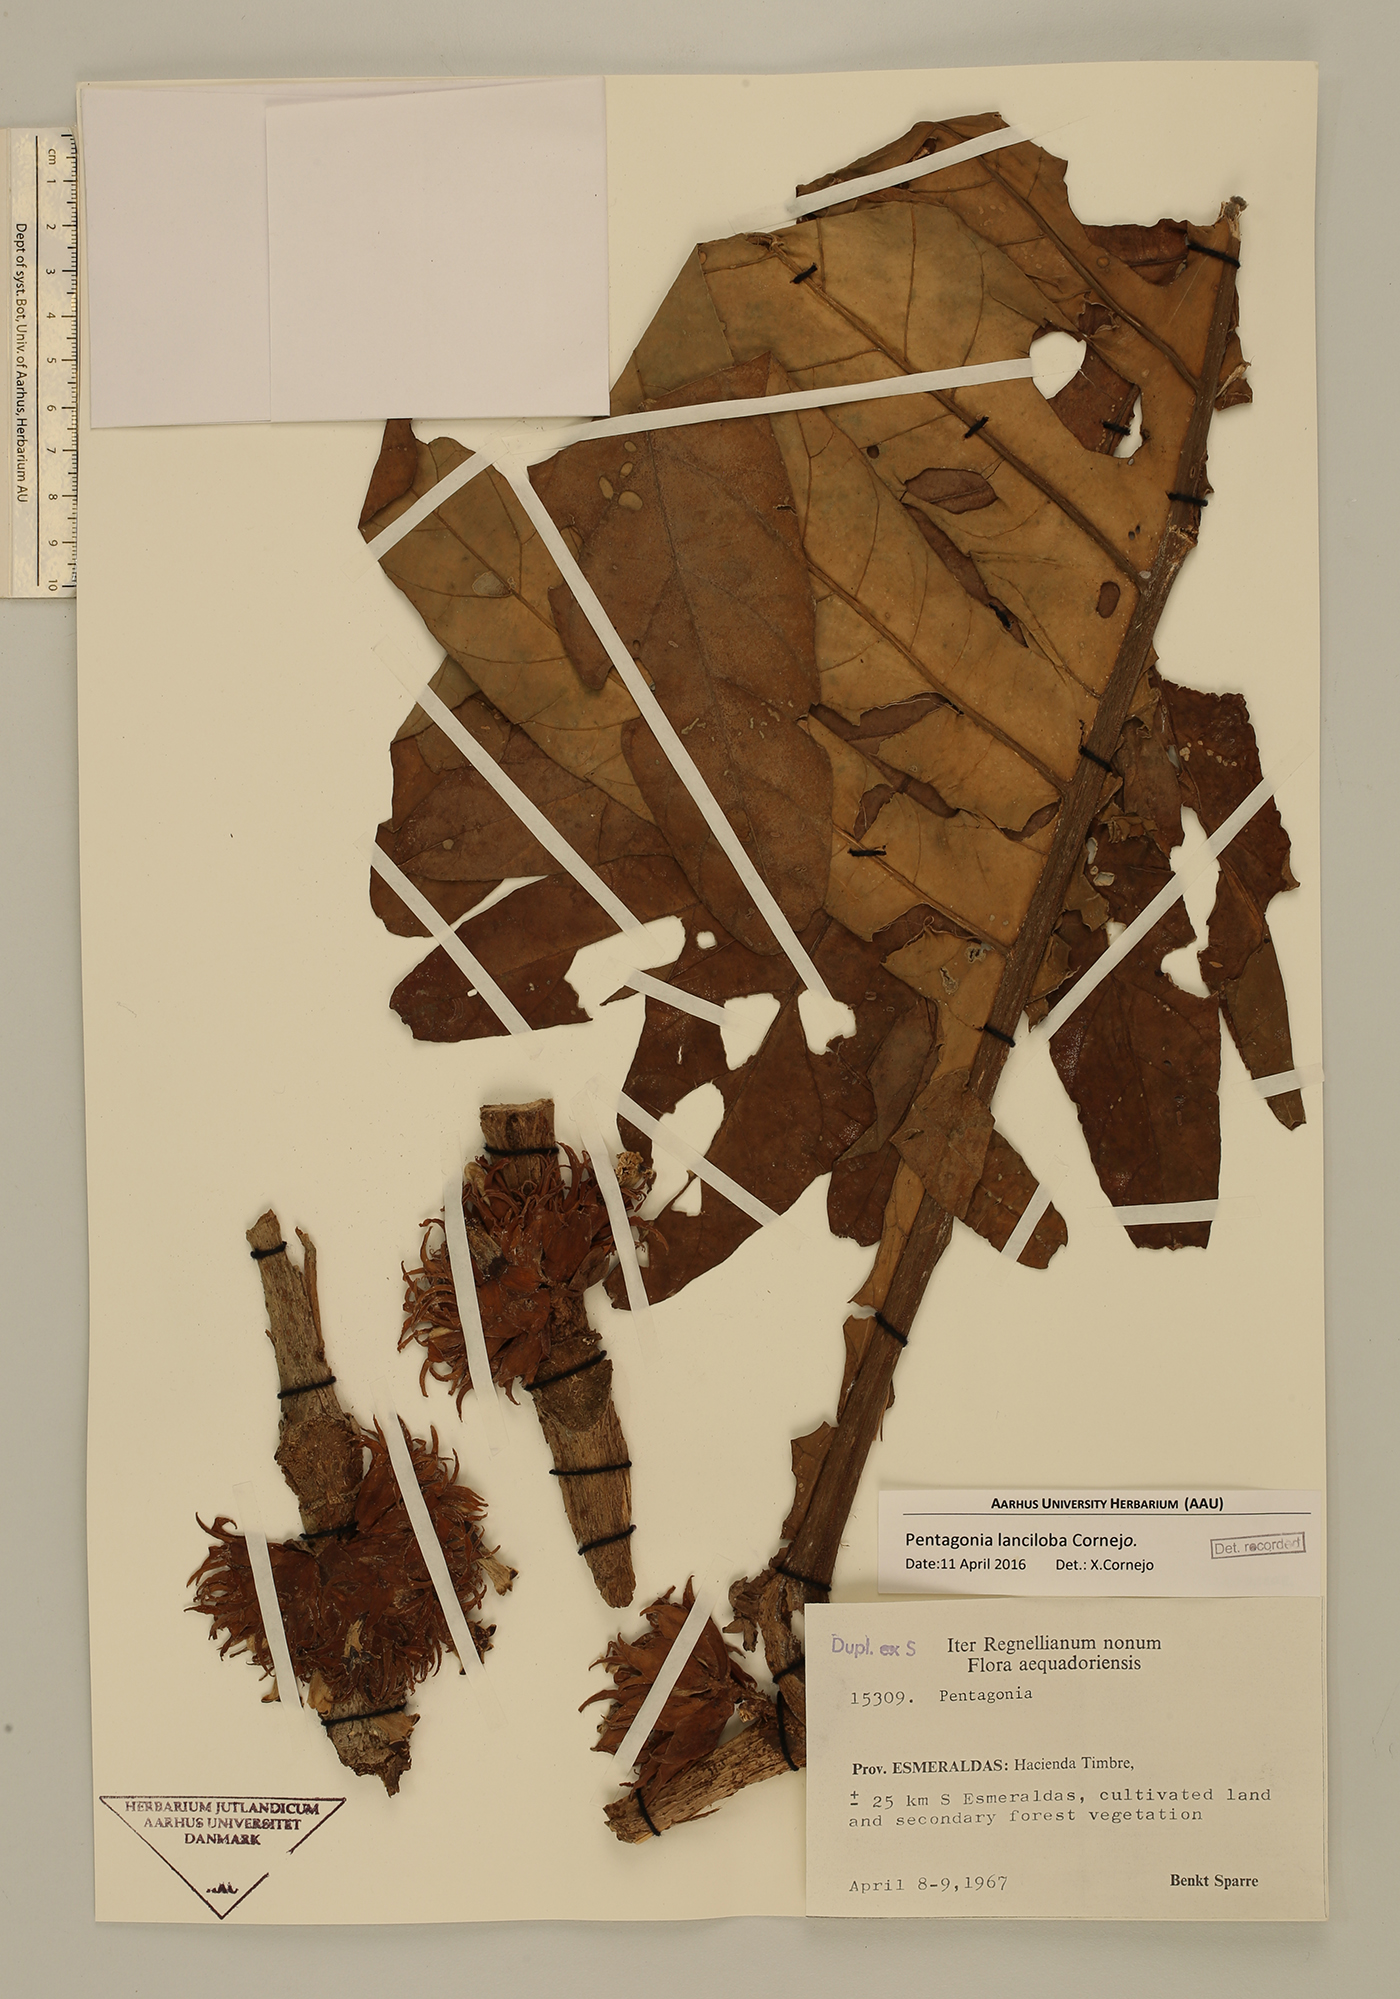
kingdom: Plantae
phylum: Tracheophyta
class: Magnoliopsida
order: Gentianales
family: Rubiaceae
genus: Pentagonia
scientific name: Pentagonia lanciloba
